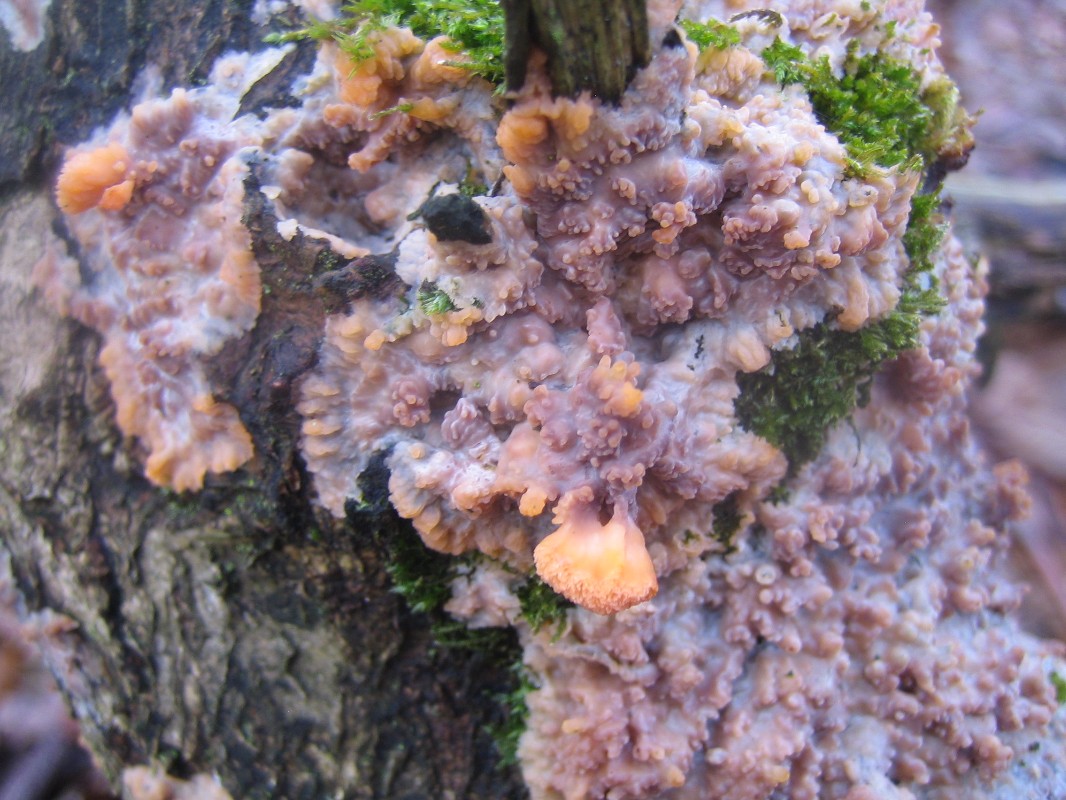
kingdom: Fungi
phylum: Basidiomycota
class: Agaricomycetes
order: Polyporales
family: Meruliaceae
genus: Phlebia
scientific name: Phlebia radiata
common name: stråle-åresvamp
